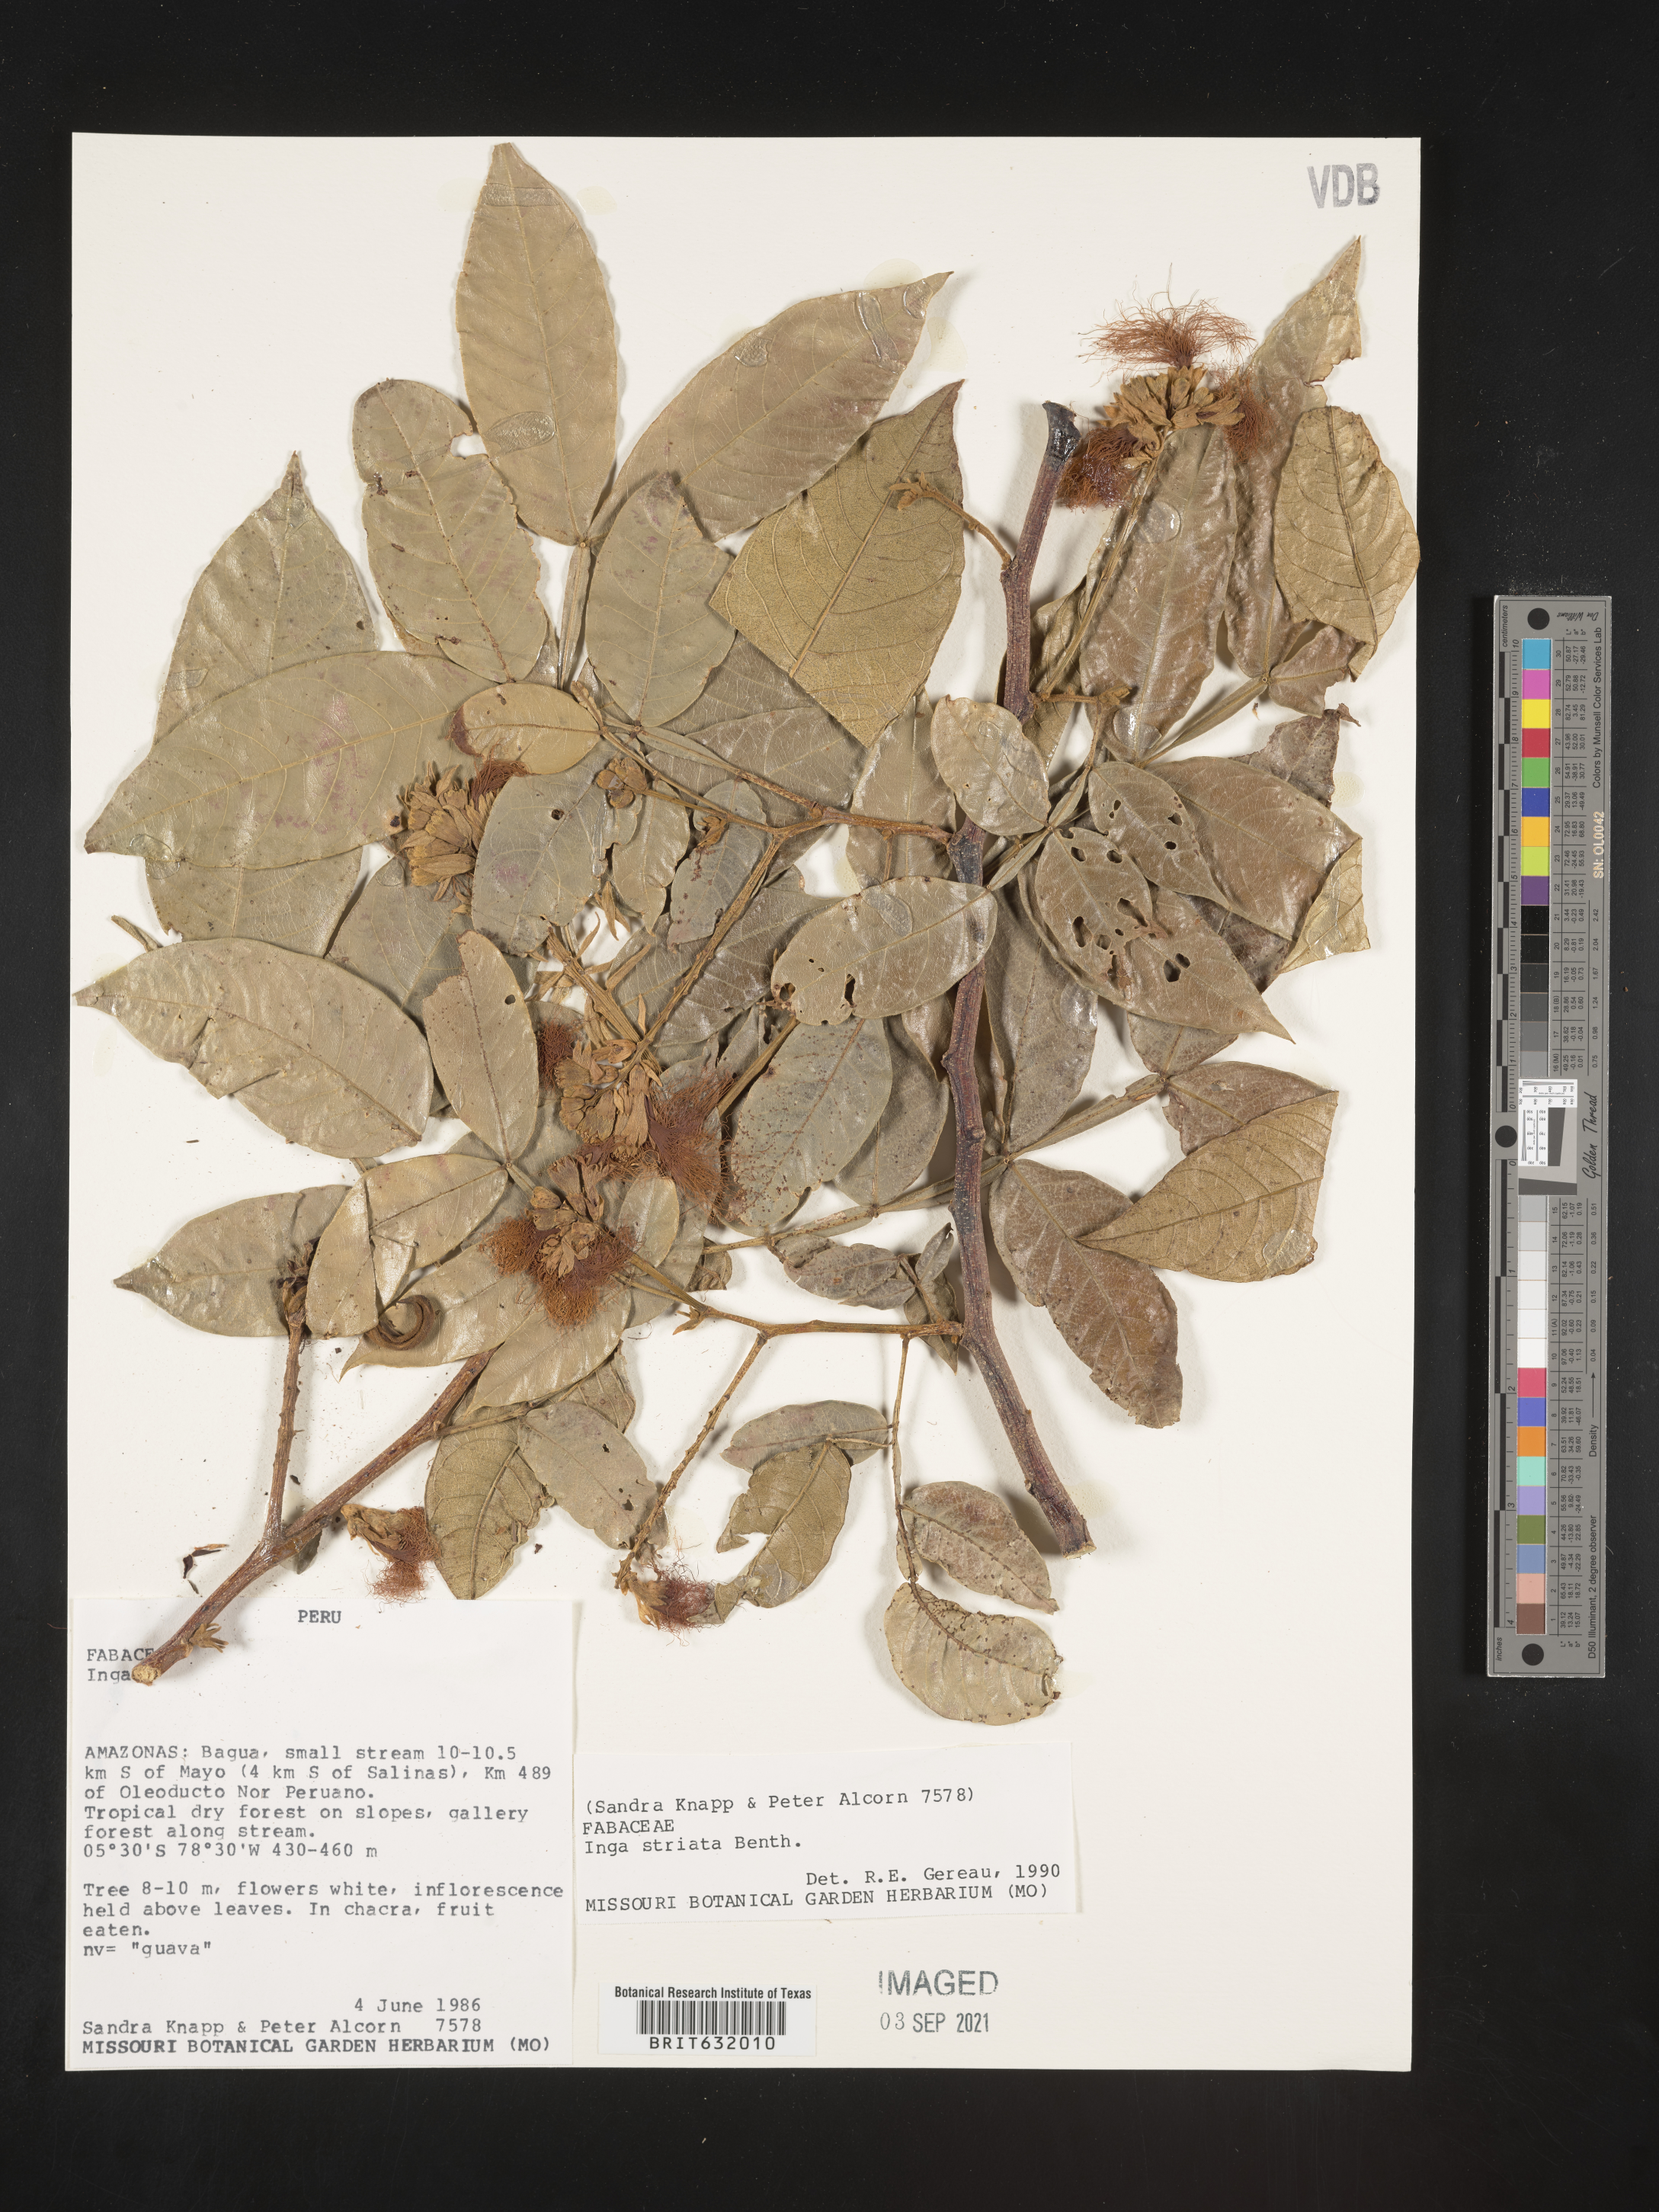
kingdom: Plantae
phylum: Tracheophyta
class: Magnoliopsida
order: Fabales
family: Fabaceae
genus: Inga
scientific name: Inga
